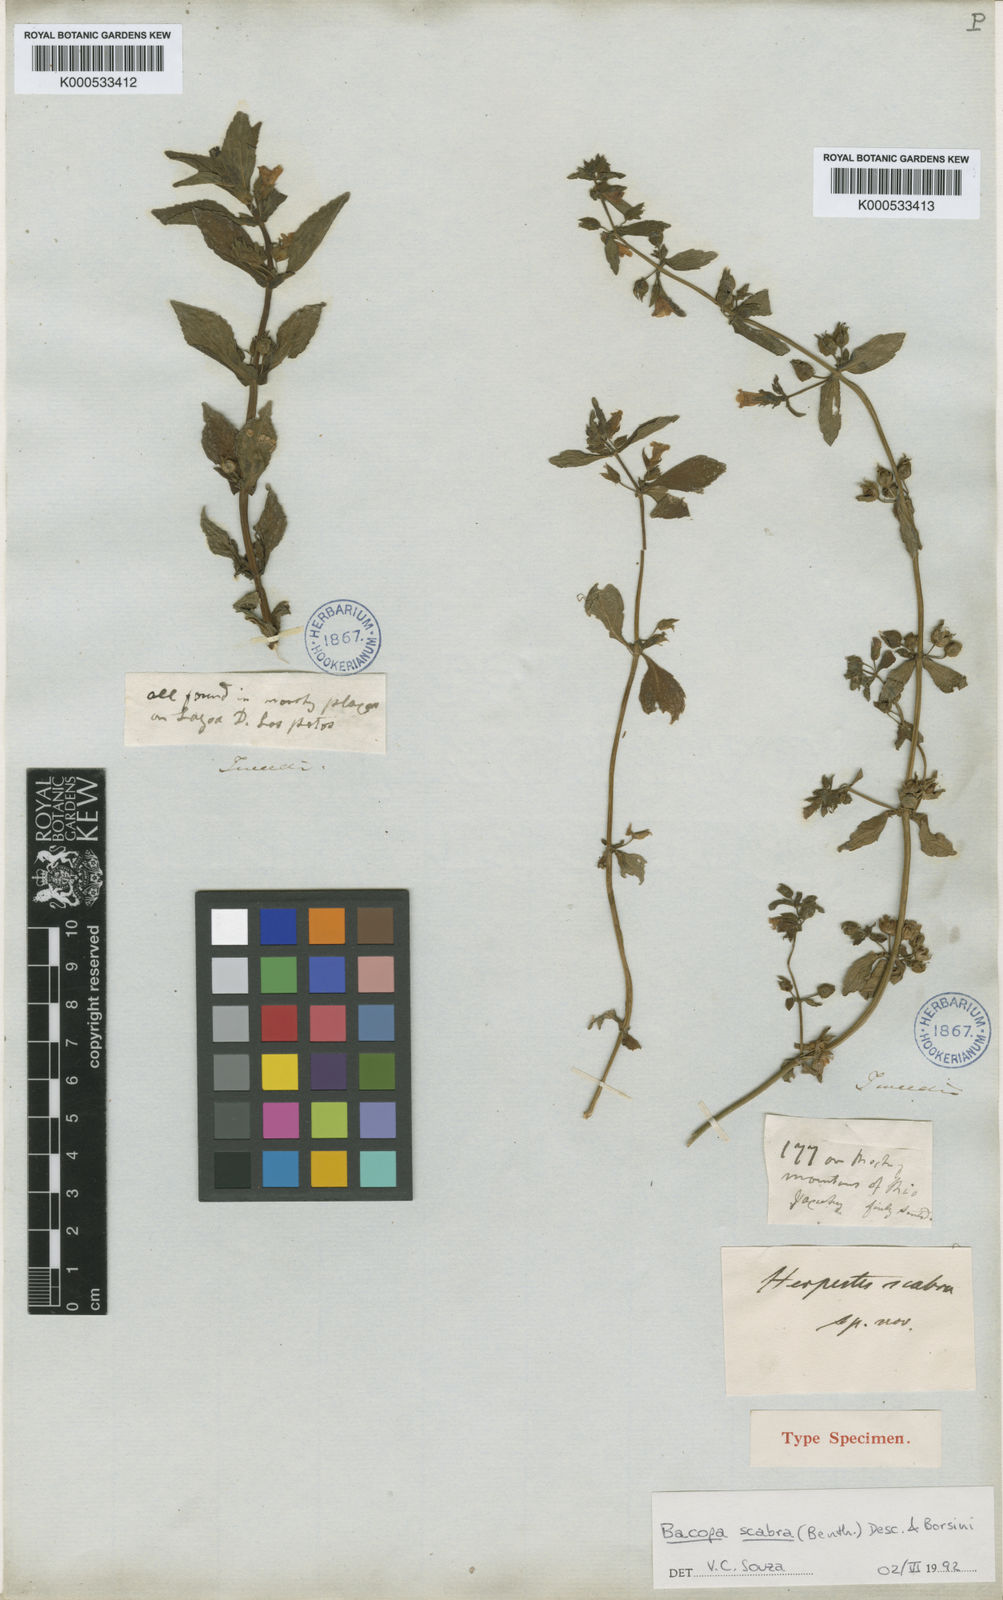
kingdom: Plantae
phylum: Tracheophyta
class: Magnoliopsida
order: Lamiales
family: Plantaginaceae
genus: Bacopa
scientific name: Bacopa scabra
